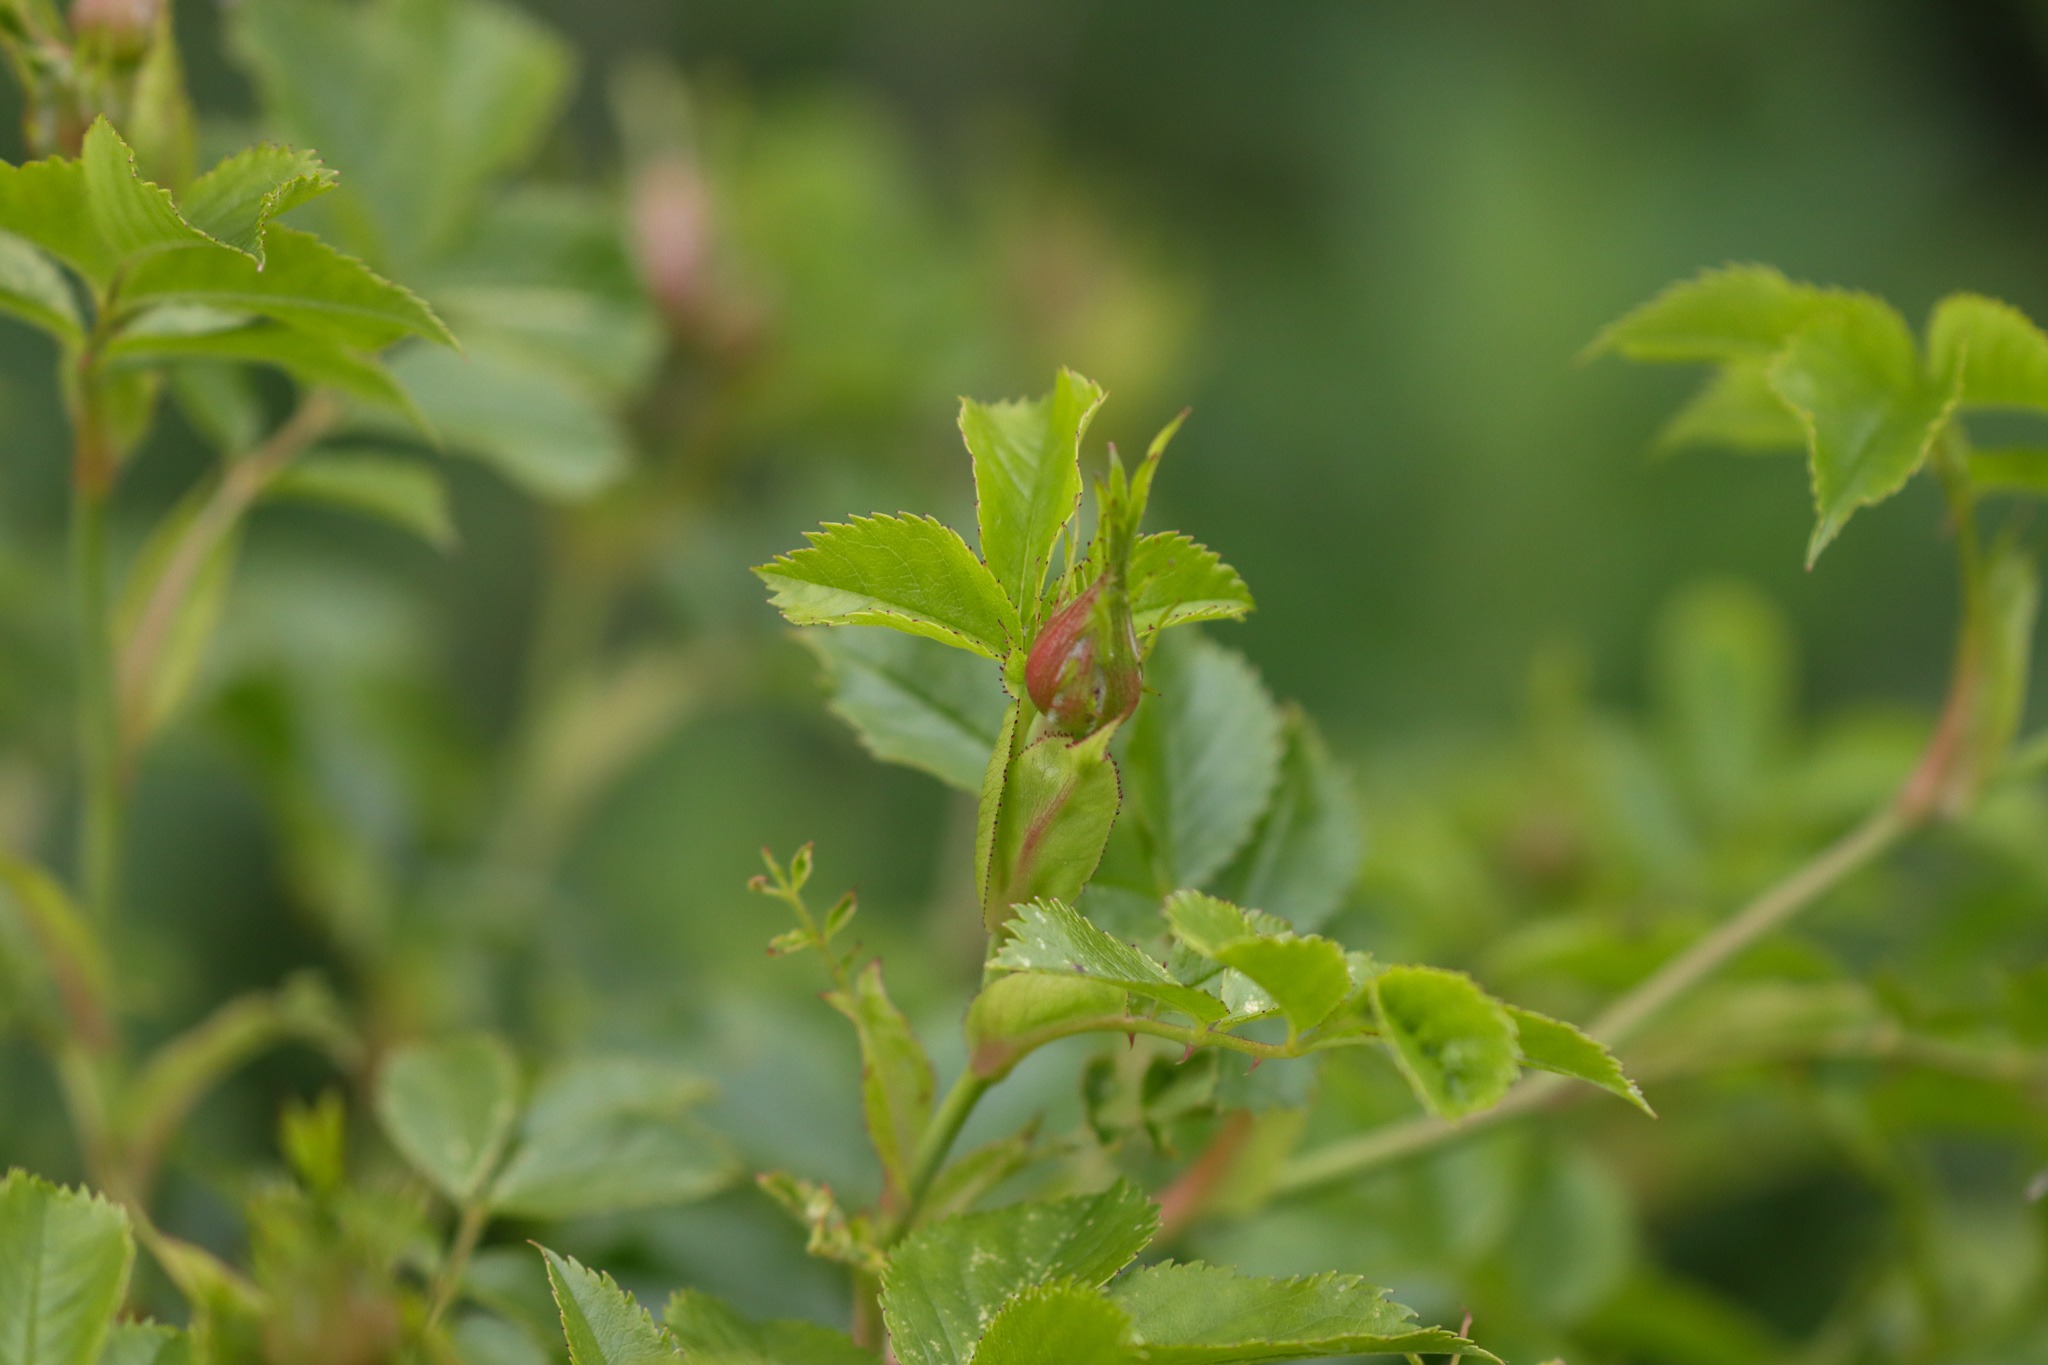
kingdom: Plantae
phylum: Tracheophyta
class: Magnoliopsida
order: Rosales
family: Rosaceae
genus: Rosa
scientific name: Rosa canina
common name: Hunde-rose
